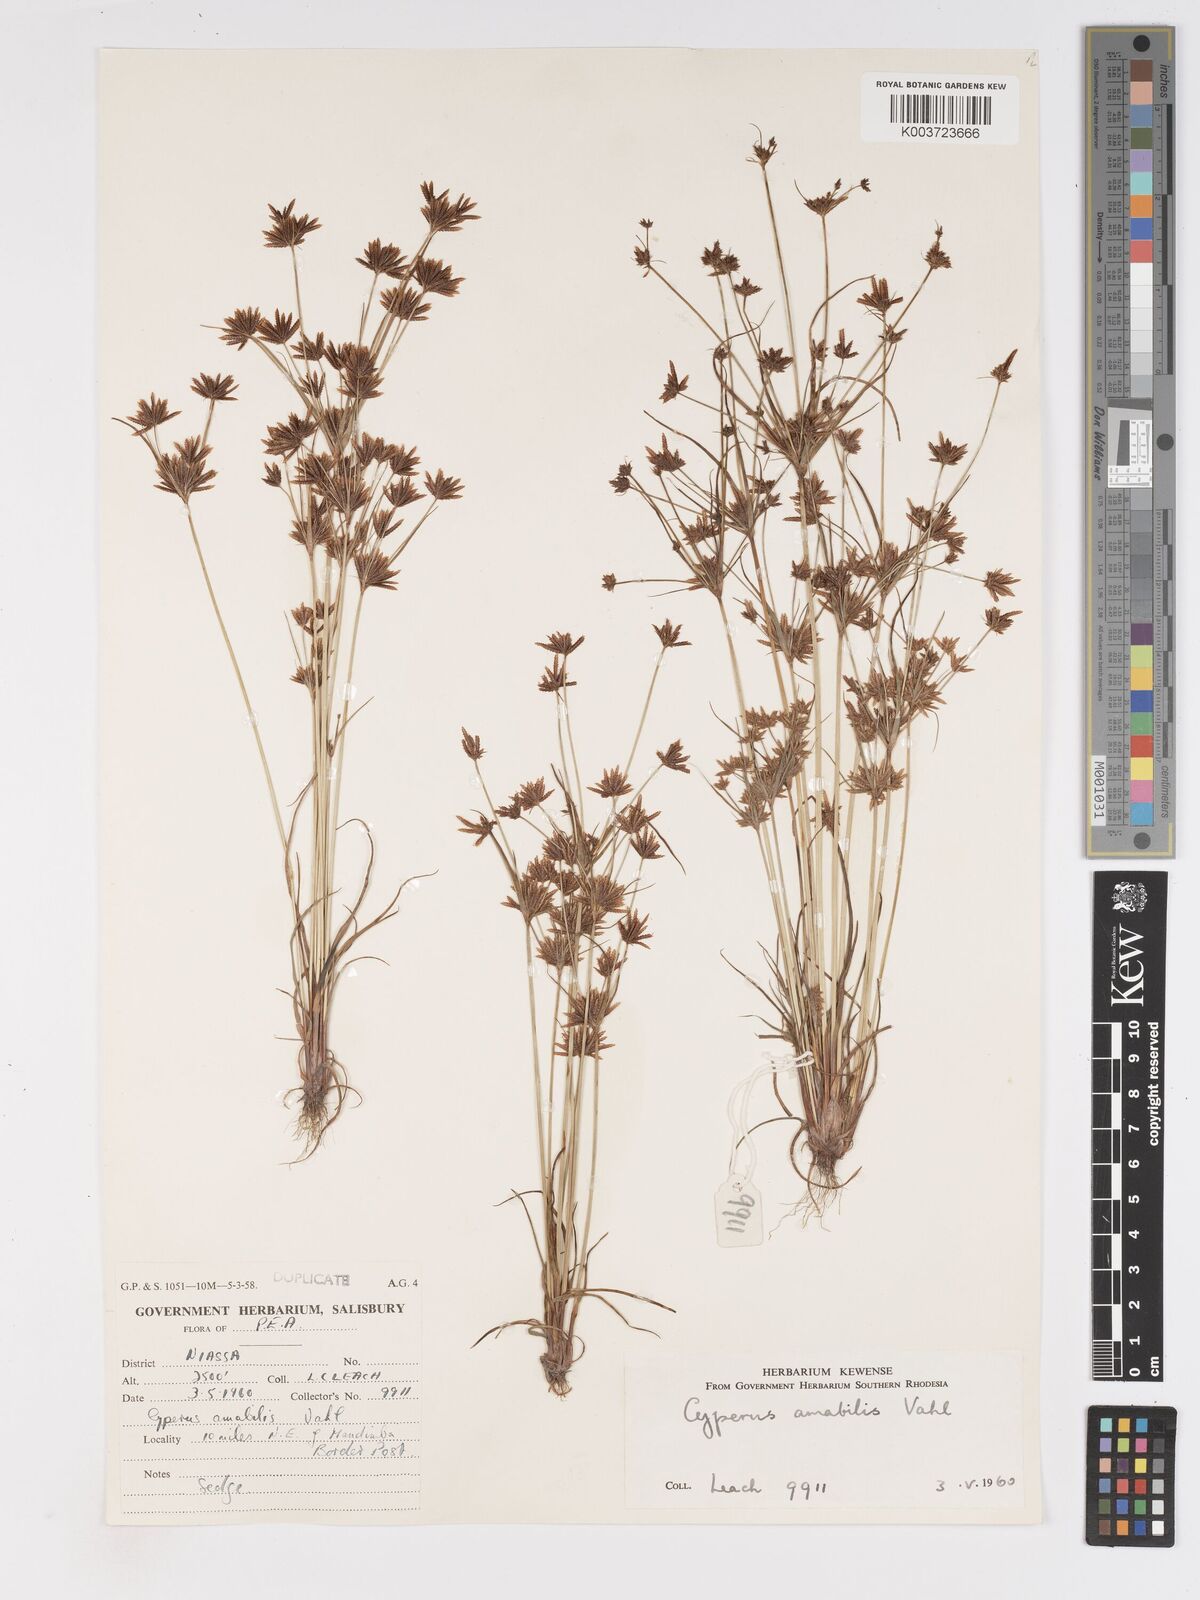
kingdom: Plantae
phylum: Tracheophyta
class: Liliopsida
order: Poales
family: Cyperaceae
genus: Cyperus
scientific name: Cyperus amabilis
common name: Foothill flat sedge
